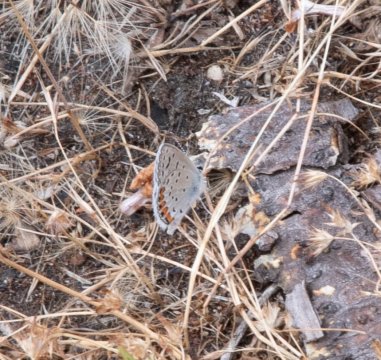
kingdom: Animalia
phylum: Arthropoda
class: Insecta
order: Lepidoptera
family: Lycaenidae
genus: Plebejus
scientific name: Plebejus acmon
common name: Acmon Blue
